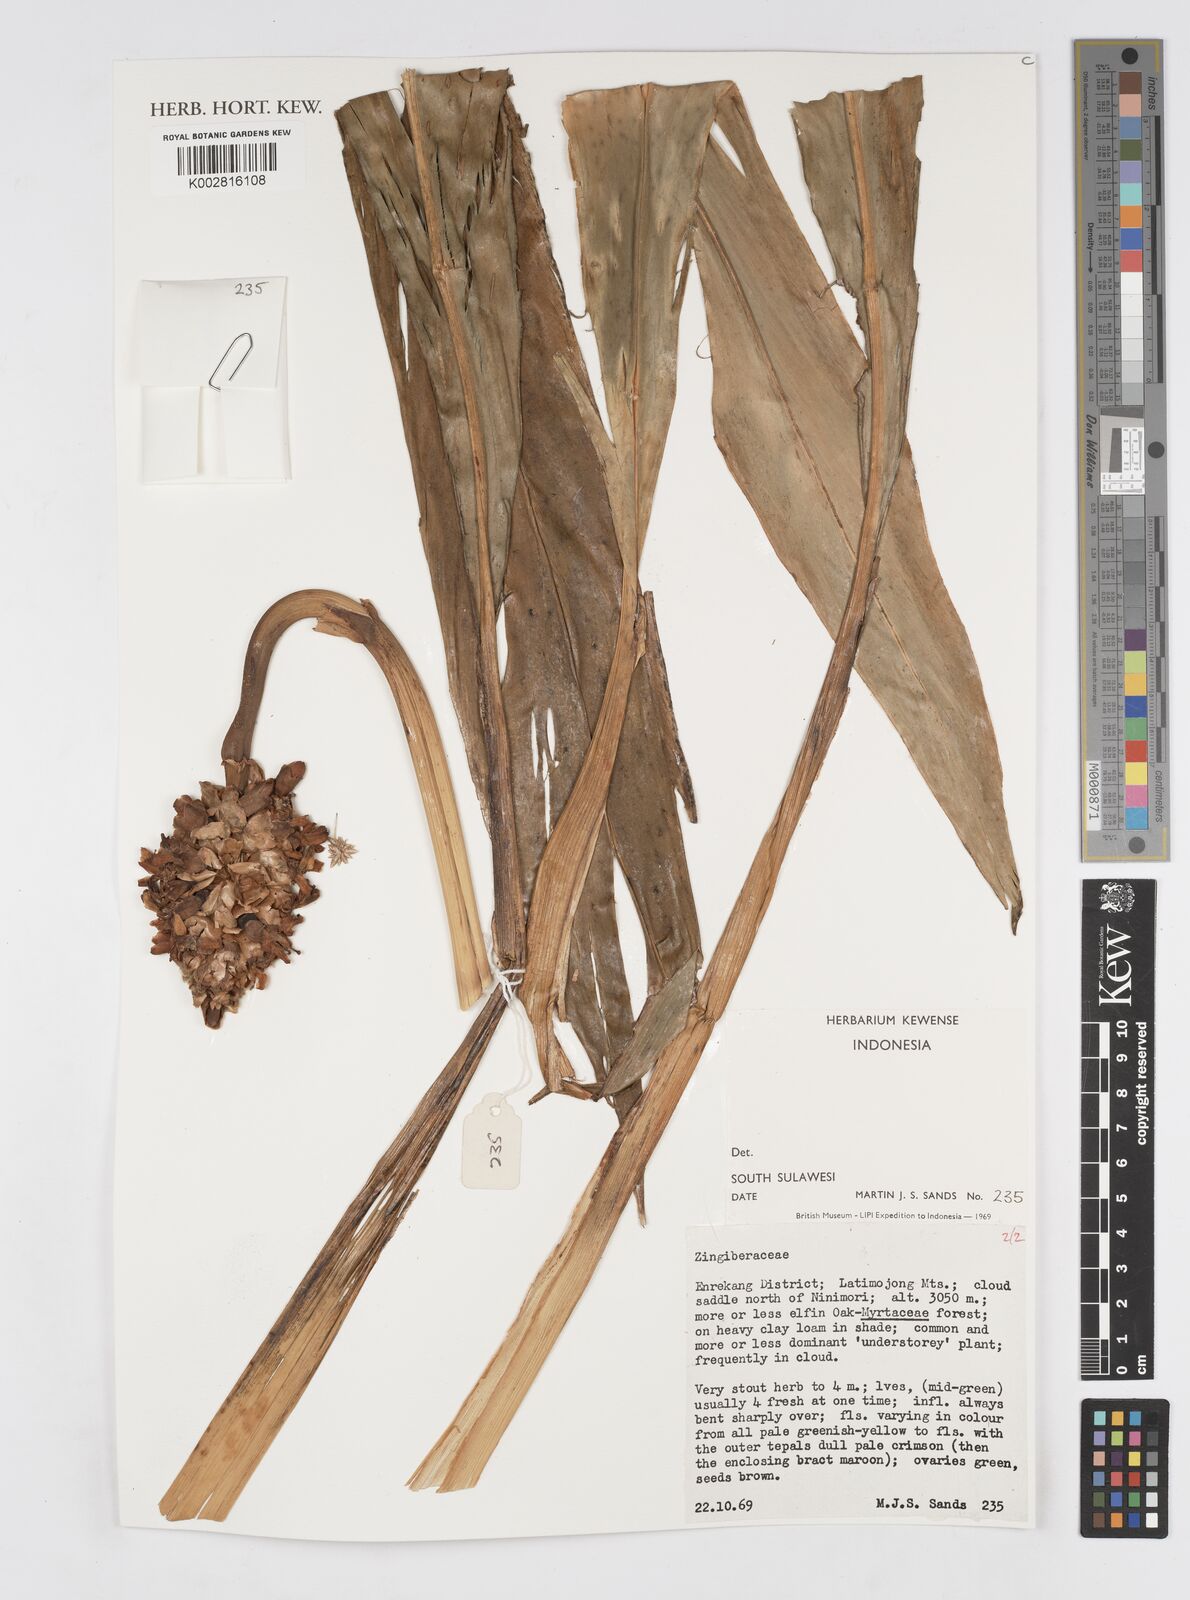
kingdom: Plantae
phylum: Tracheophyta
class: Liliopsida
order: Zingiberales
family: Zingiberaceae
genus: Alpinia
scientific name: Alpinia
